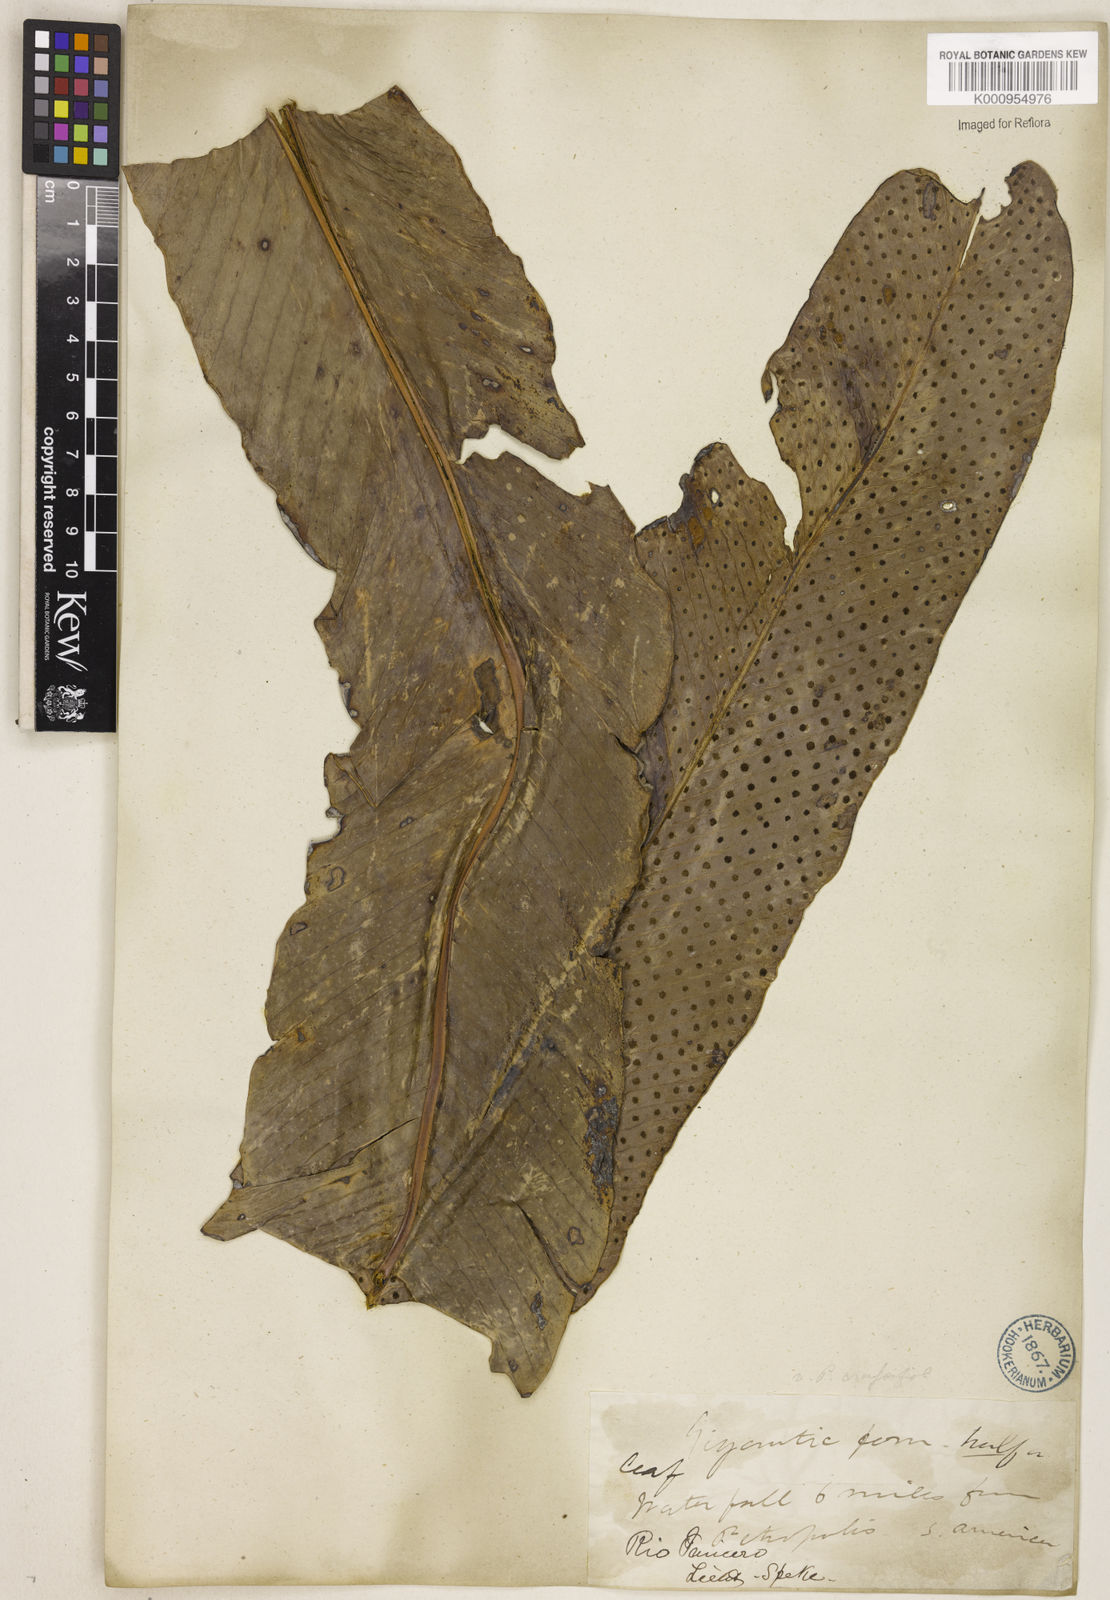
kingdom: Plantae
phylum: Tracheophyta
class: Polypodiopsida
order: Polypodiales
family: Polypodiaceae
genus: Niphidium
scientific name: Niphidium crassifolium
